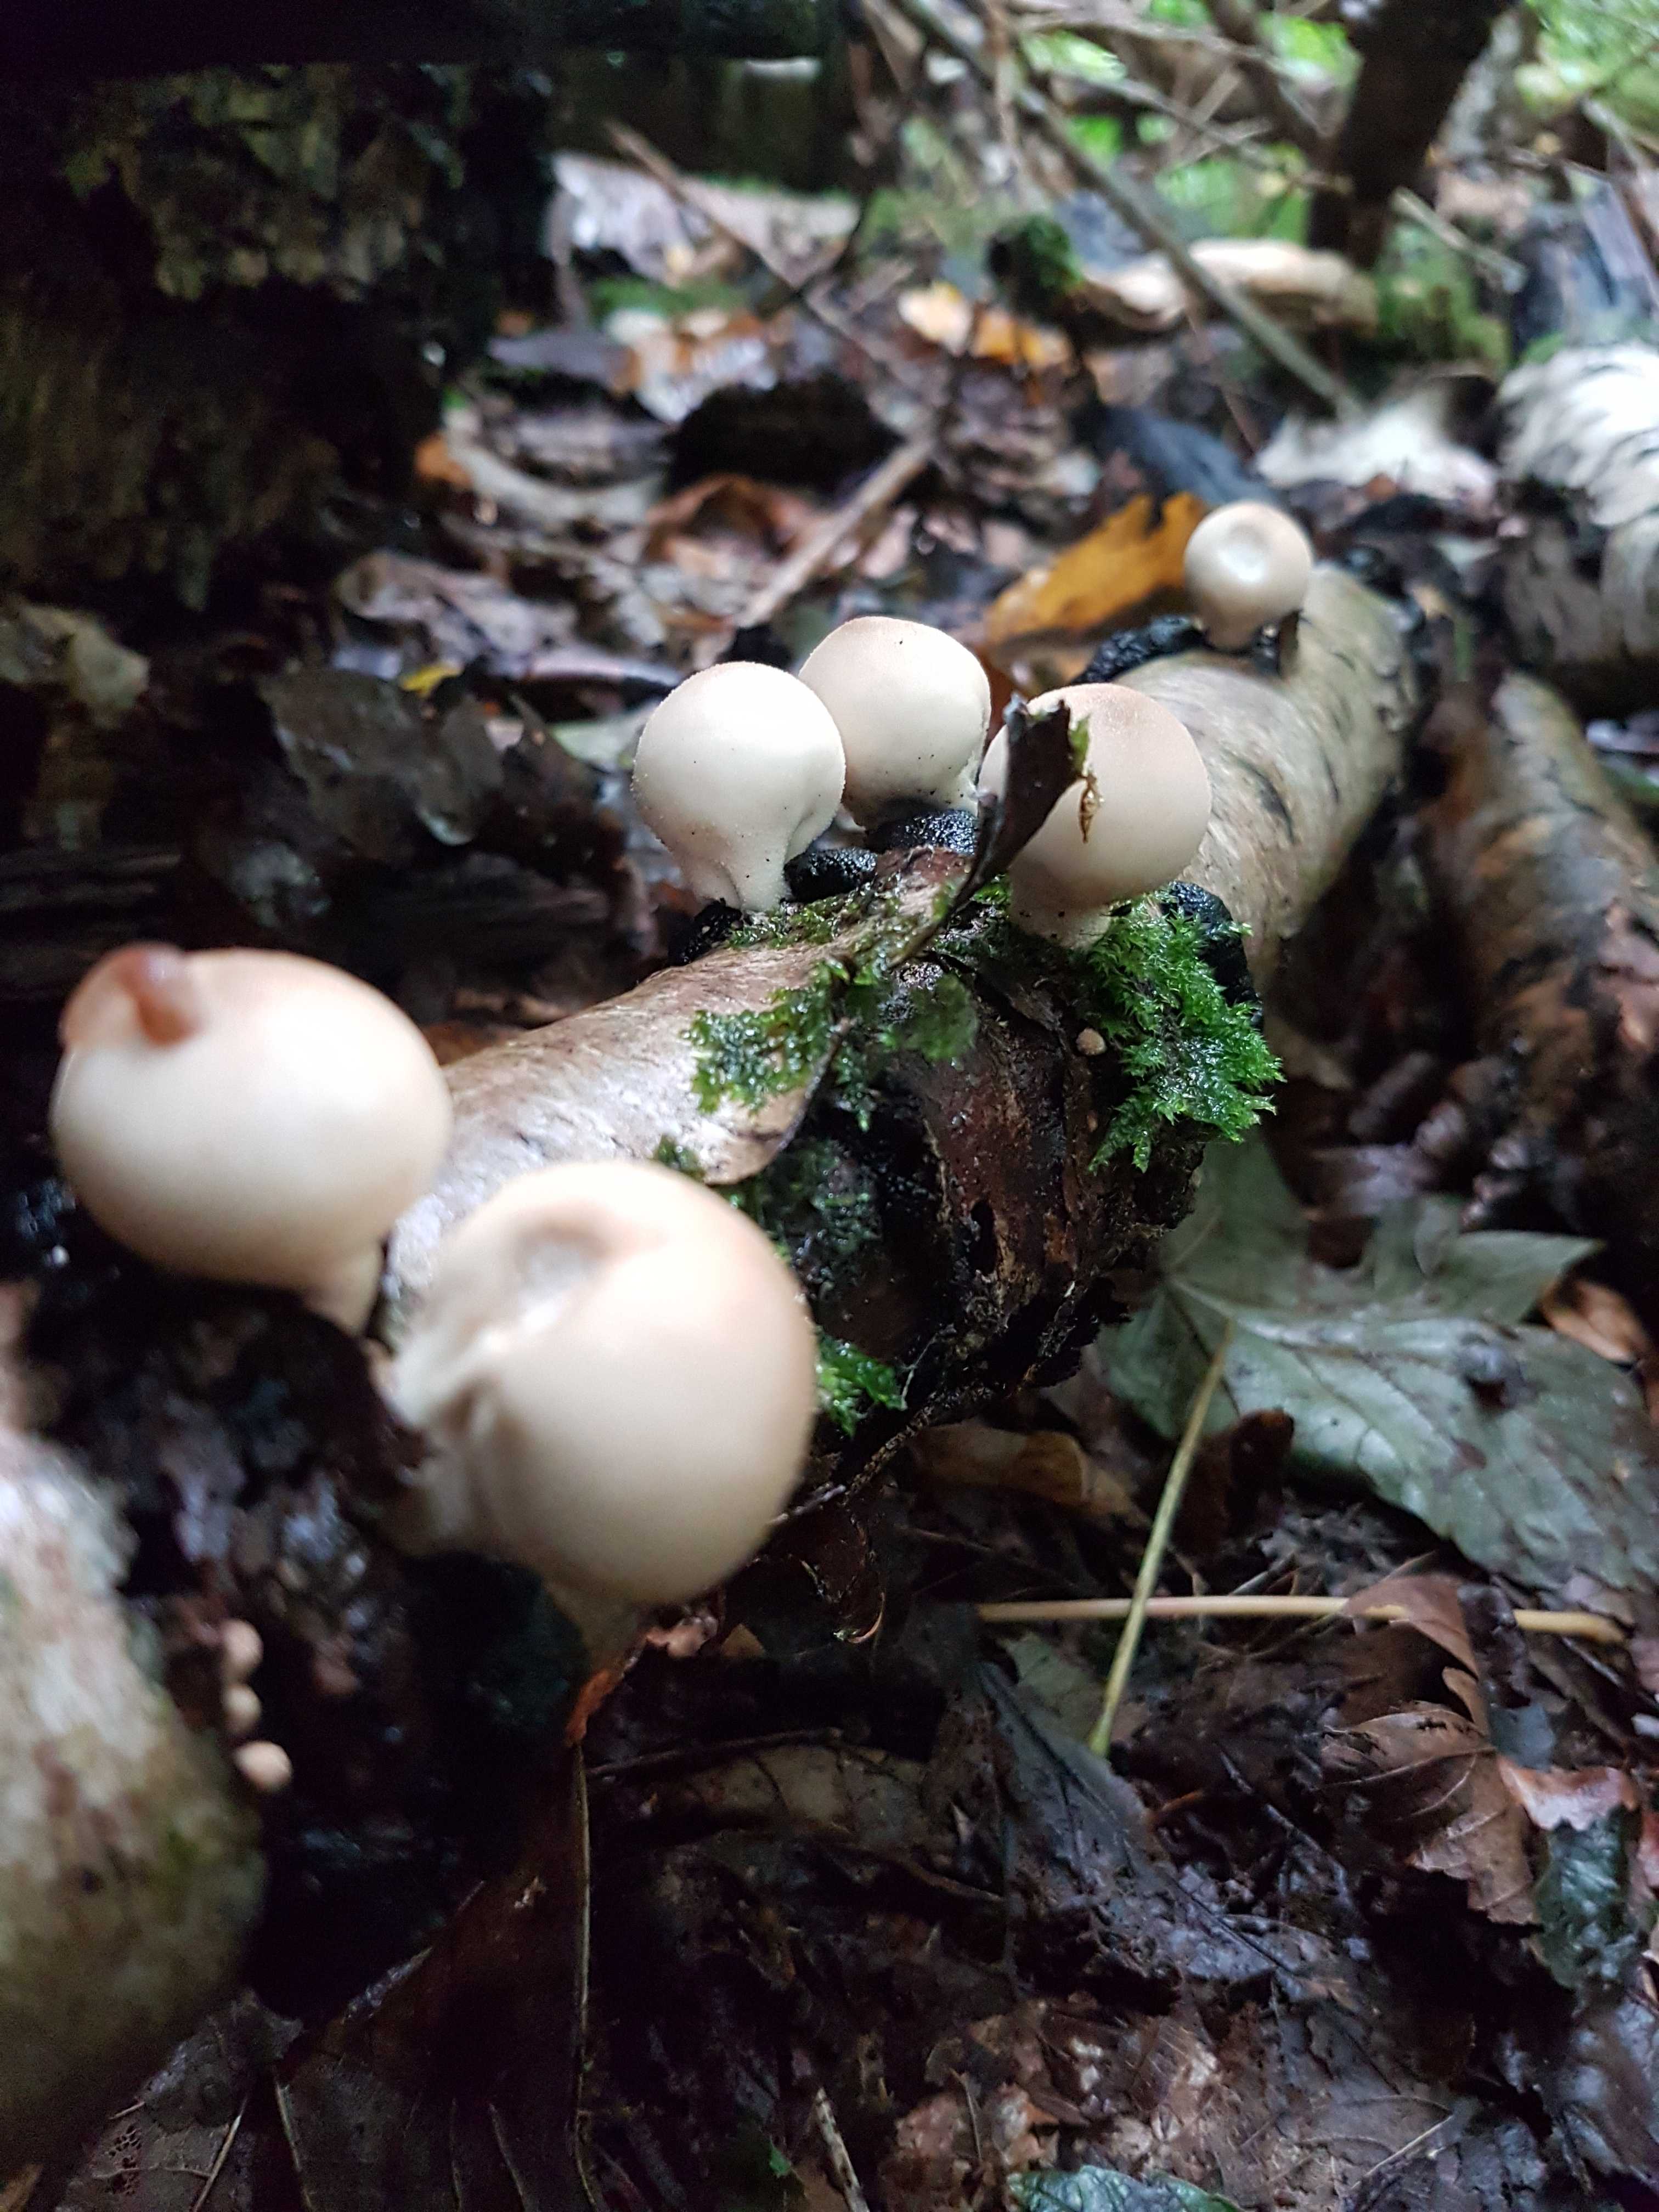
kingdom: Fungi
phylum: Basidiomycota
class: Agaricomycetes
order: Agaricales
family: Lycoperdaceae
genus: Apioperdon
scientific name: Apioperdon pyriforme
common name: pære-støvbold
